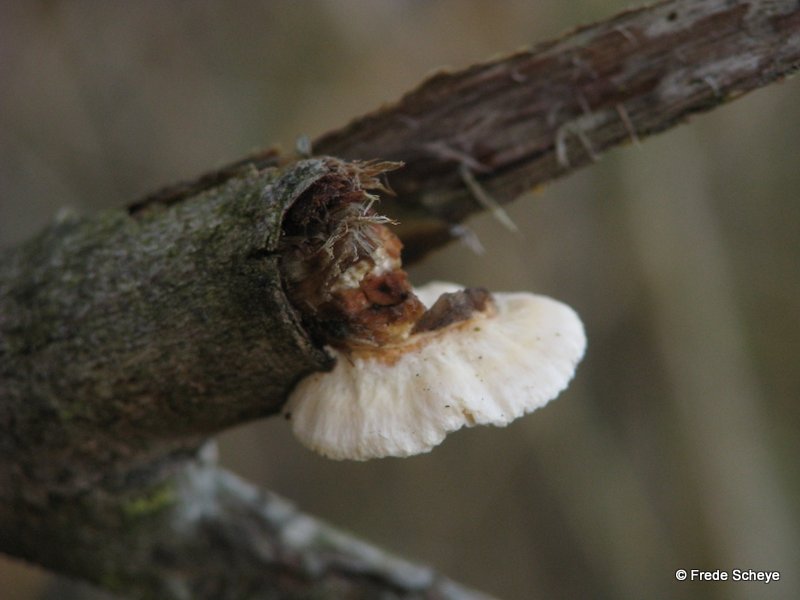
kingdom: Fungi
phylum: Basidiomycota
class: Agaricomycetes
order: Polyporales
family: Polyporaceae
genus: Daedaleopsis
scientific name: Daedaleopsis confragosa
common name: rødmende læderporesvamp
